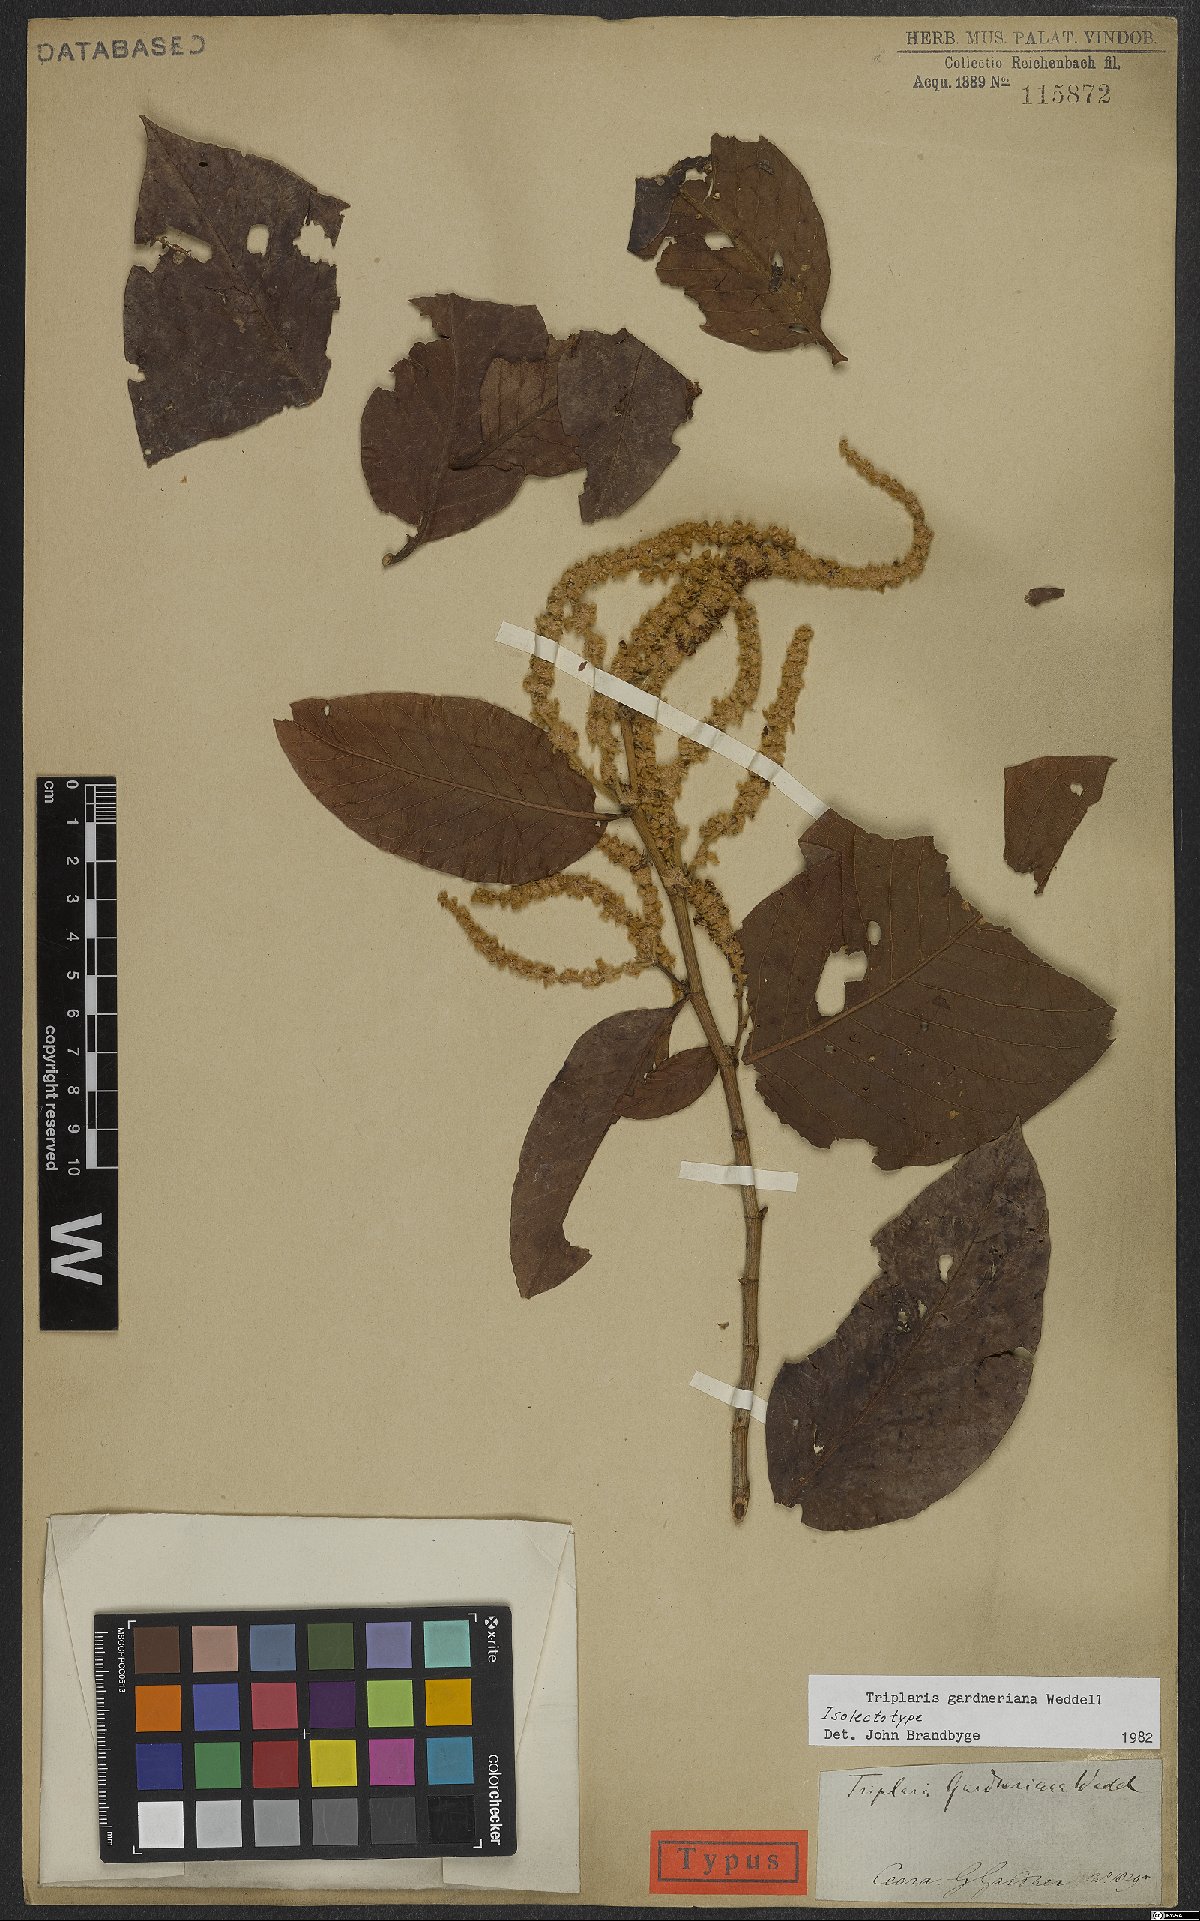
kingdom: Plantae
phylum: Tracheophyta
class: Magnoliopsida
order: Caryophyllales
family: Polygonaceae
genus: Triplaris
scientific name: Triplaris gardneriana
